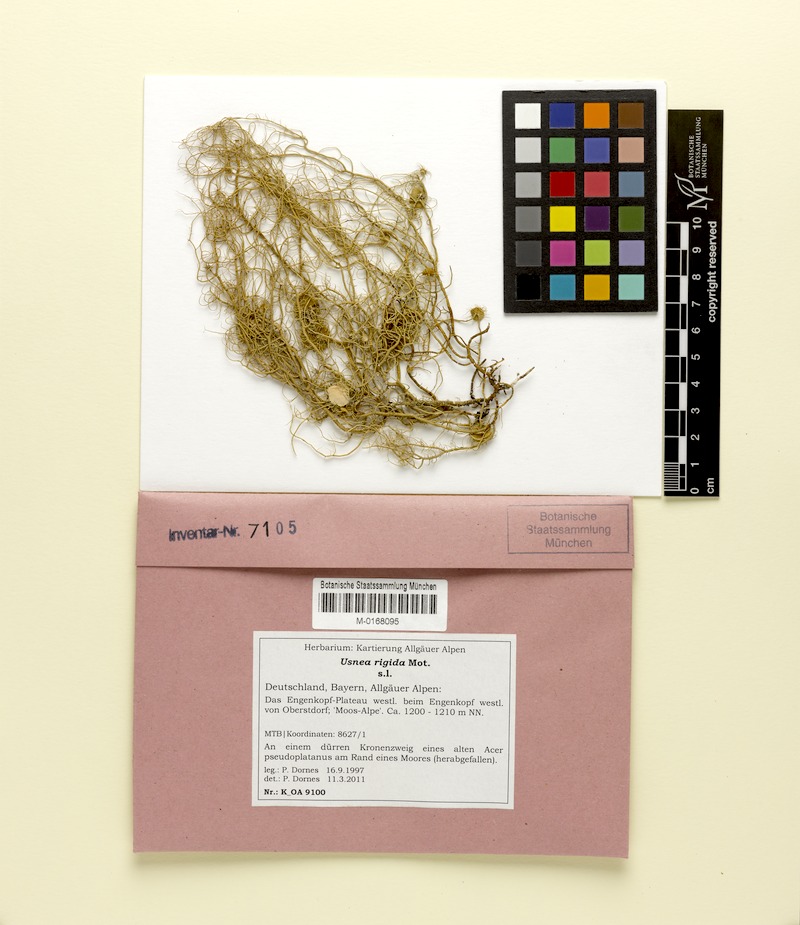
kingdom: Fungi
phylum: Ascomycota
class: Lecanoromycetes
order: Lecanorales
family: Parmeliaceae
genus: Usnea
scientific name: Usnea quasirigida
